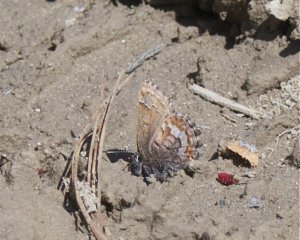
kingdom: Animalia
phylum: Arthropoda
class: Insecta
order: Lepidoptera
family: Lycaenidae
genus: Incisalia
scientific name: Incisalia niphon
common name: Eastern Pine Elfin
